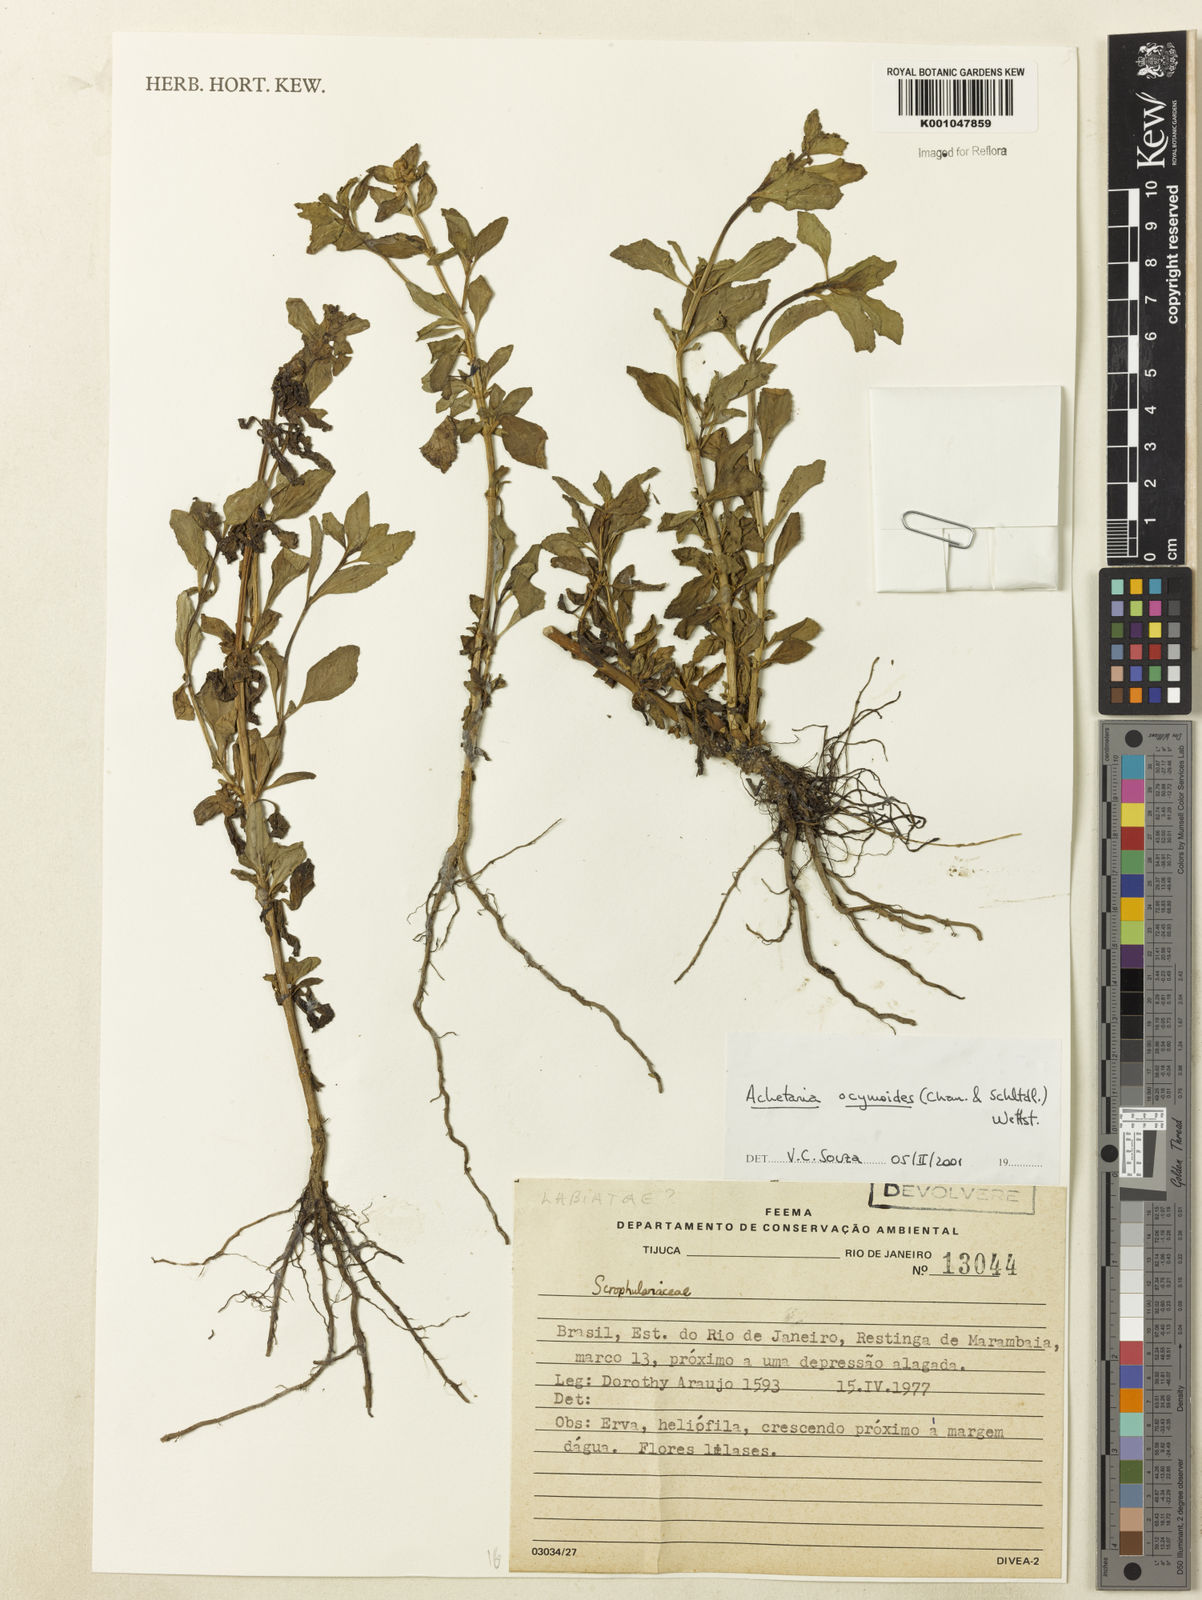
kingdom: Plantae
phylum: Tracheophyta
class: Magnoliopsida
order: Lamiales
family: Plantaginaceae
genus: Matourea
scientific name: Matourea ocymoides
